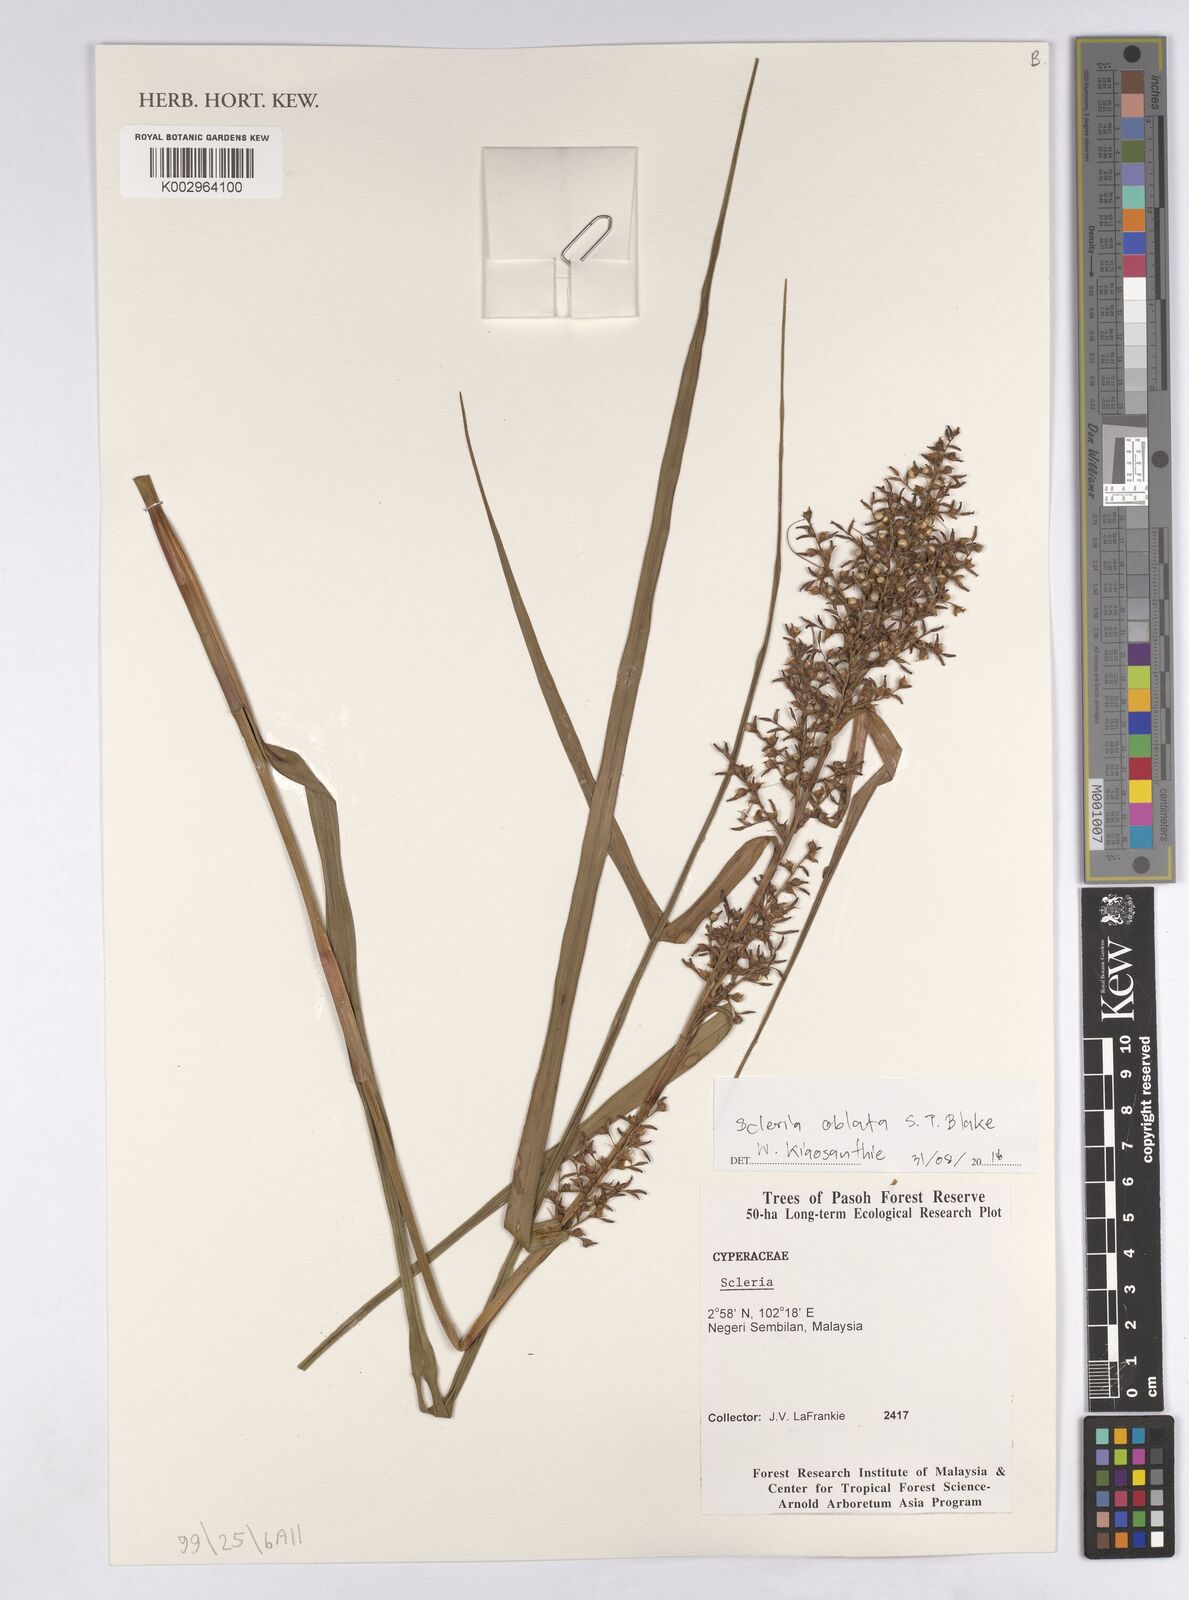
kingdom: Plantae
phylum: Tracheophyta
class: Liliopsida
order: Poales
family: Cyperaceae
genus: Scleria
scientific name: Scleria purpurascens
